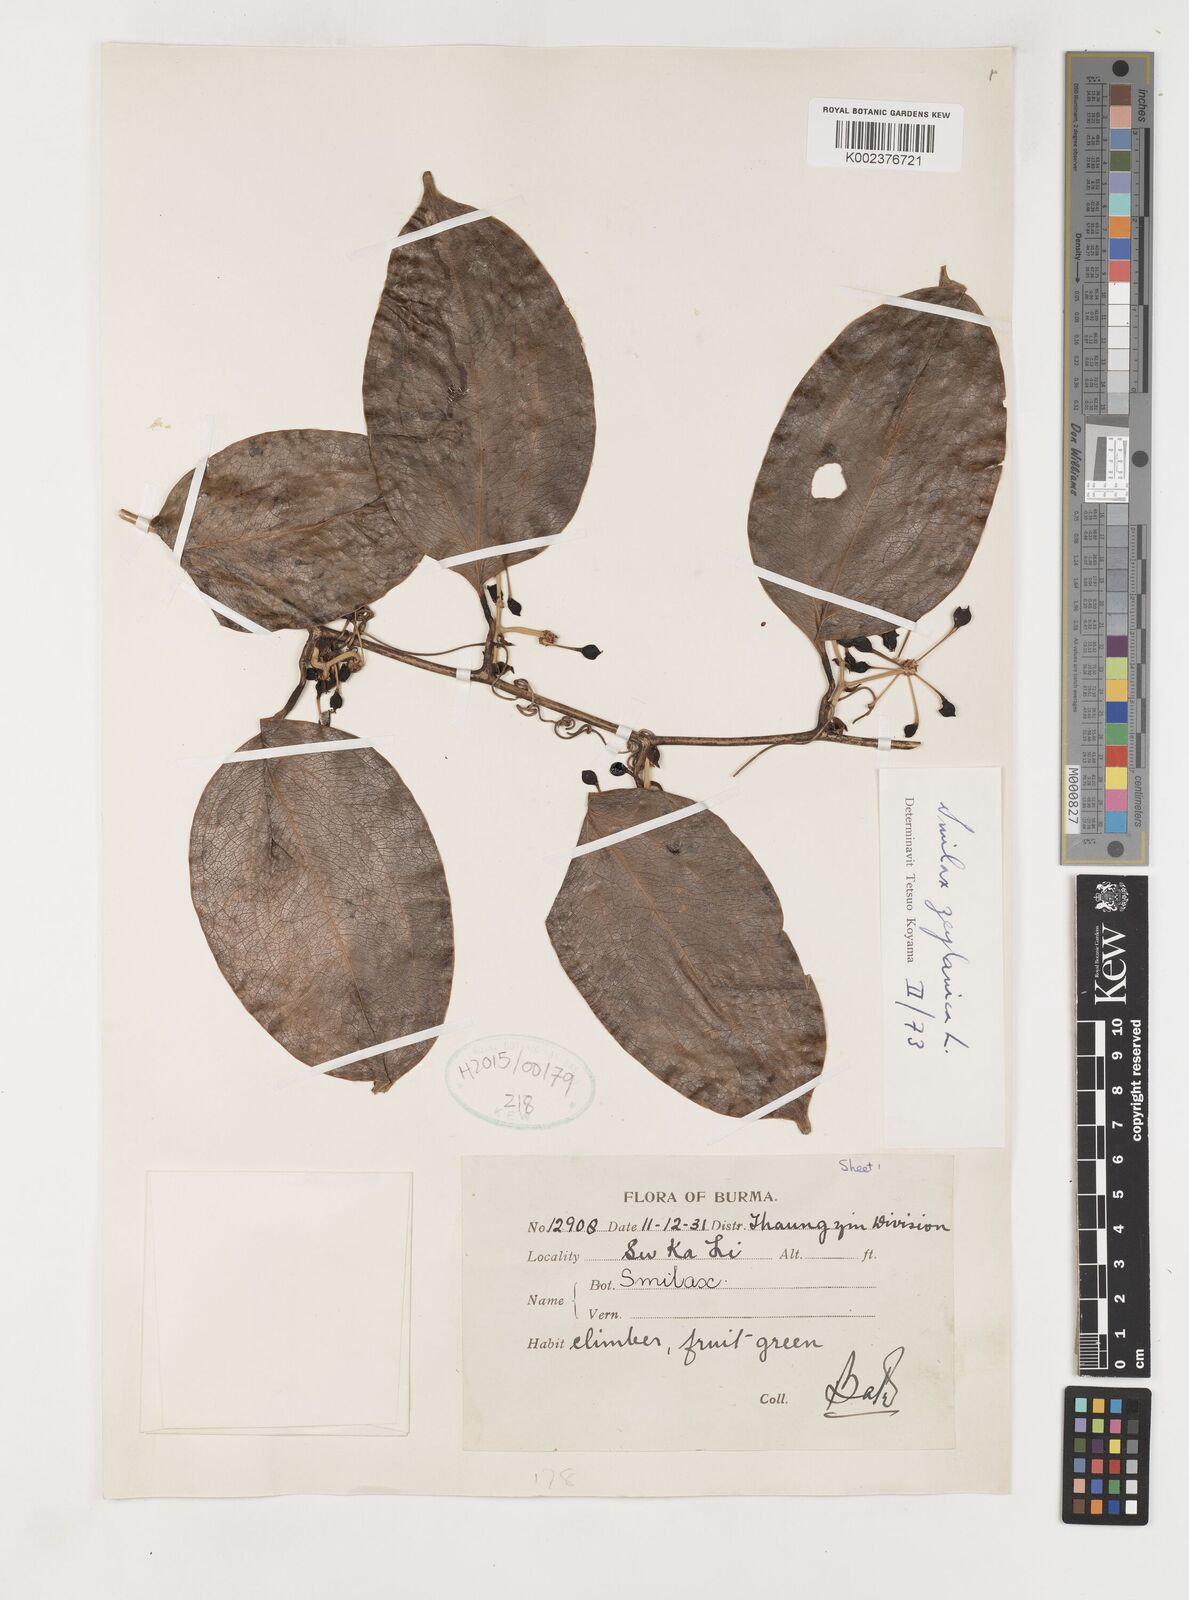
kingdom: Plantae
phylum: Tracheophyta
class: Liliopsida
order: Liliales
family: Smilacaceae
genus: Smilax
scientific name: Smilax zeylanica
